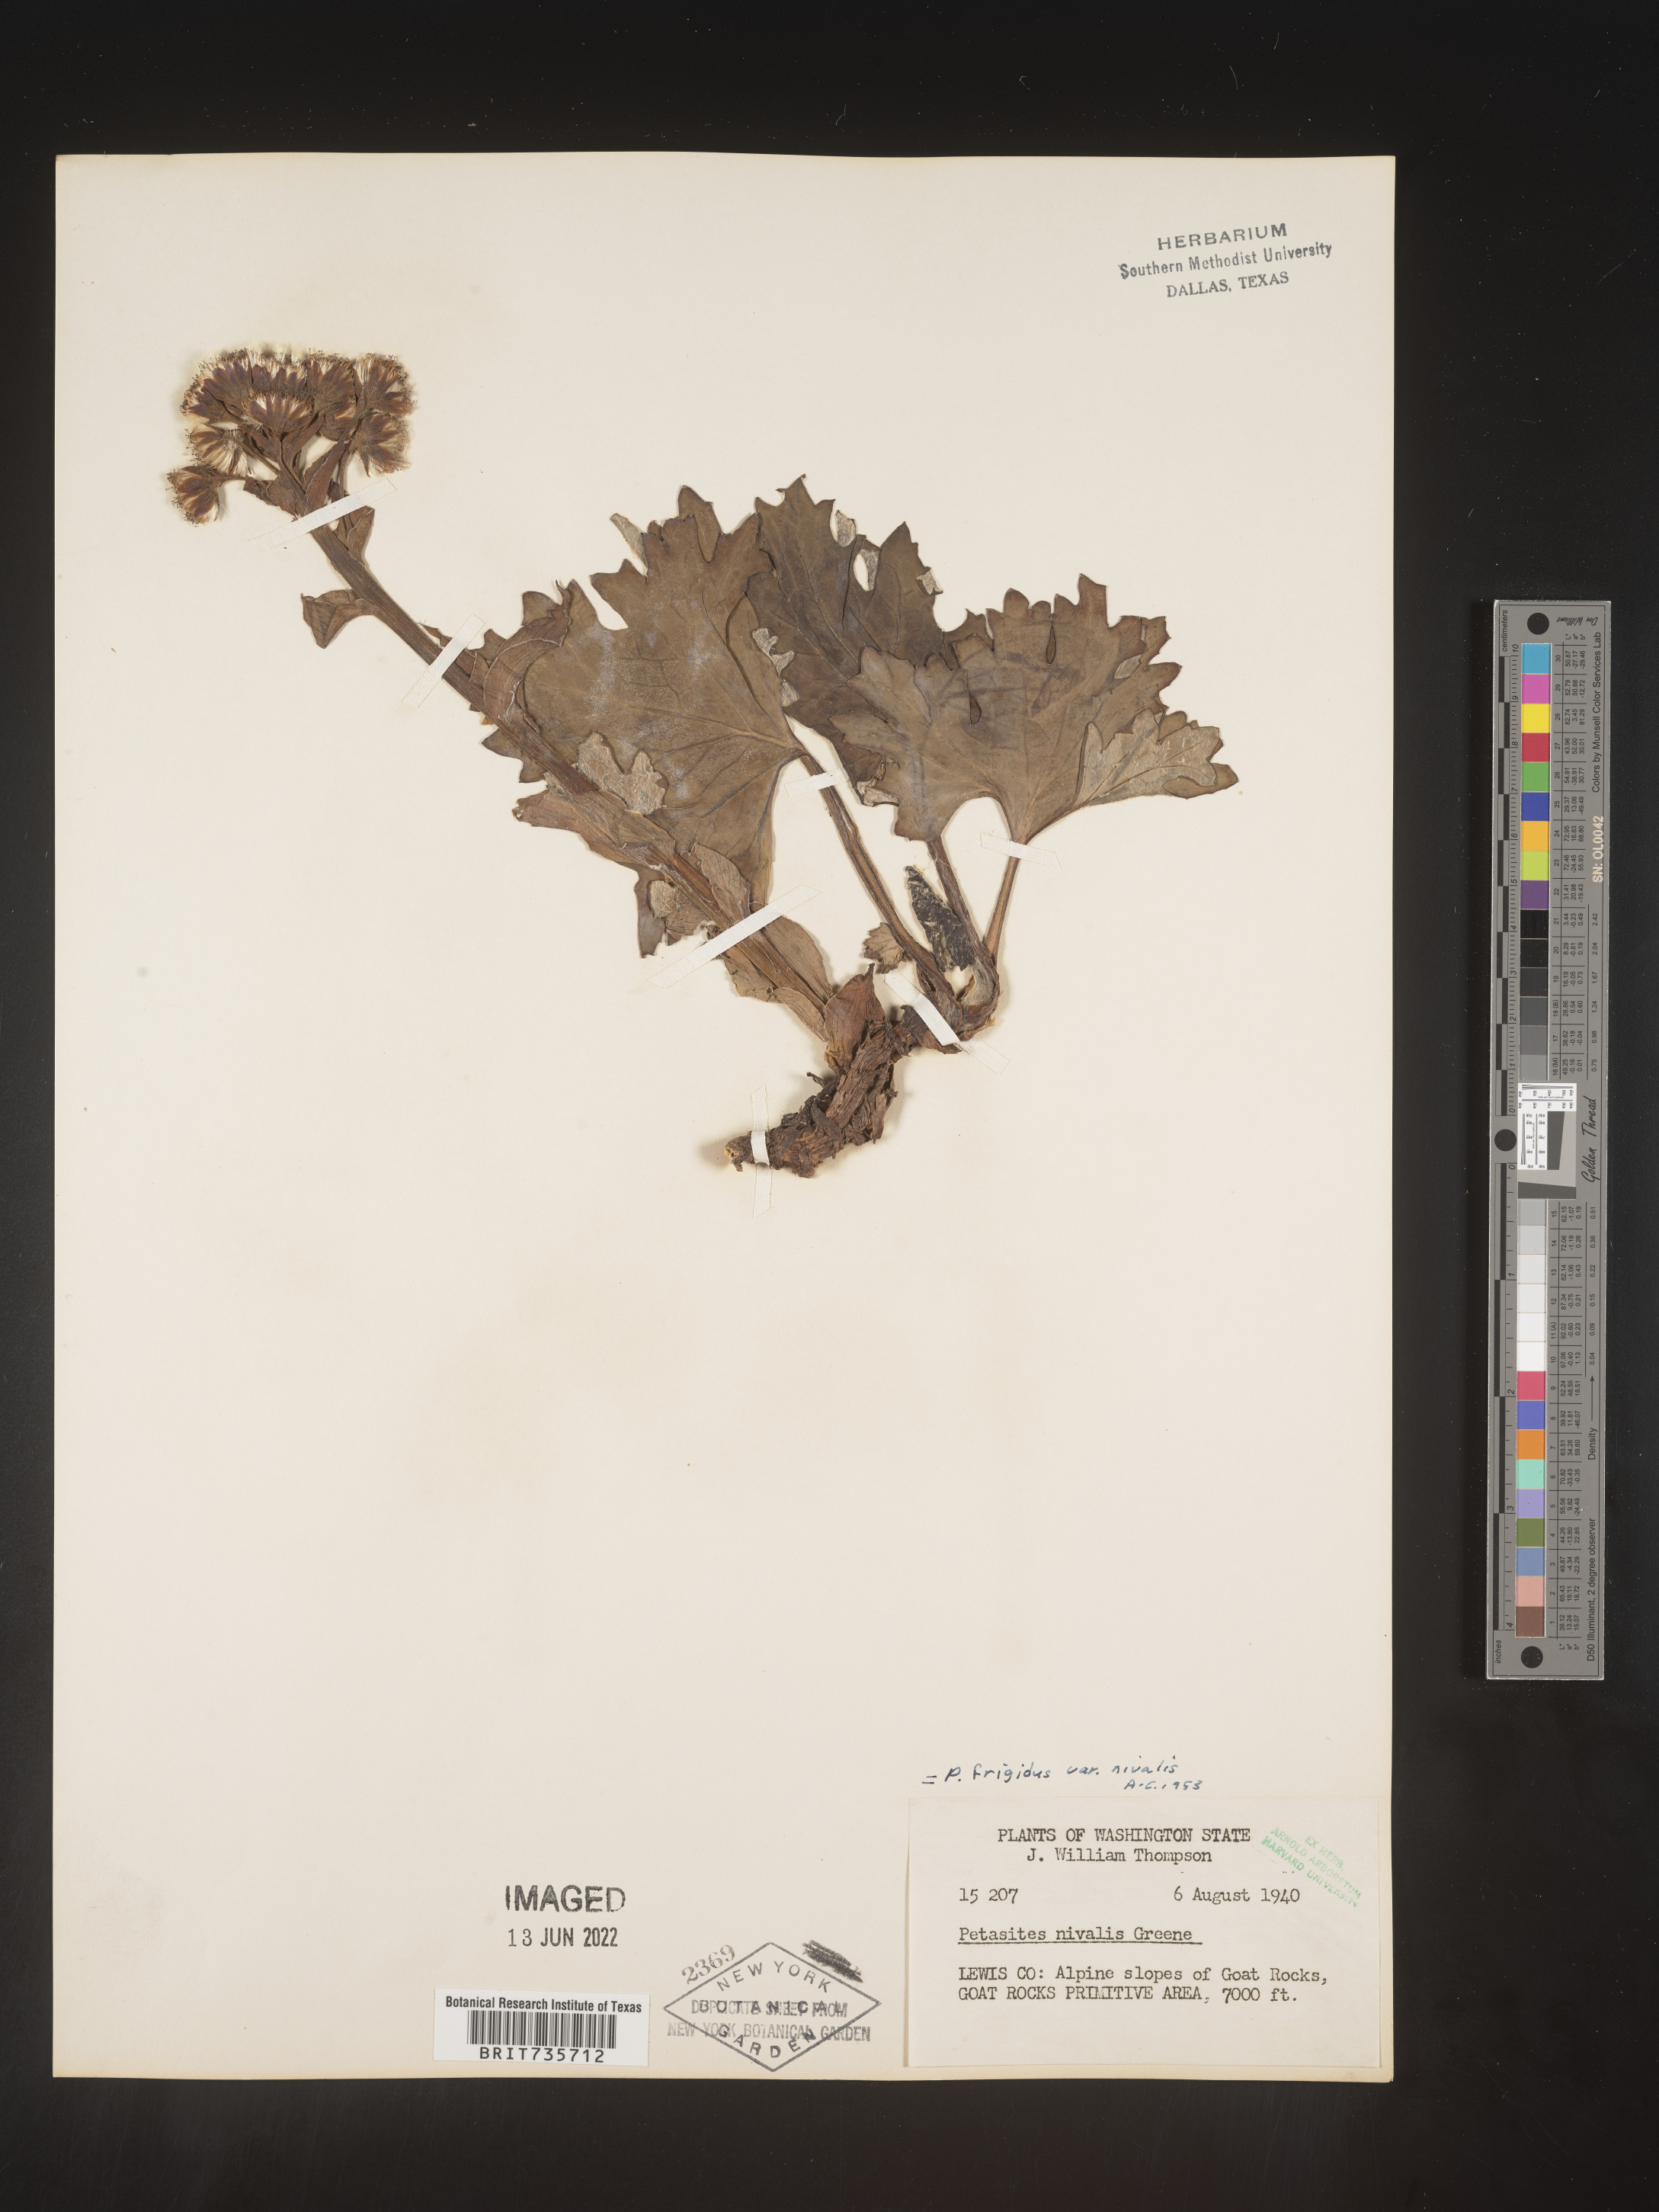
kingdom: Plantae
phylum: Tracheophyta
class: Magnoliopsida
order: Asterales
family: Asteraceae
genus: Petasites
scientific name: Petasites frigidus
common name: Arctic butterbur
